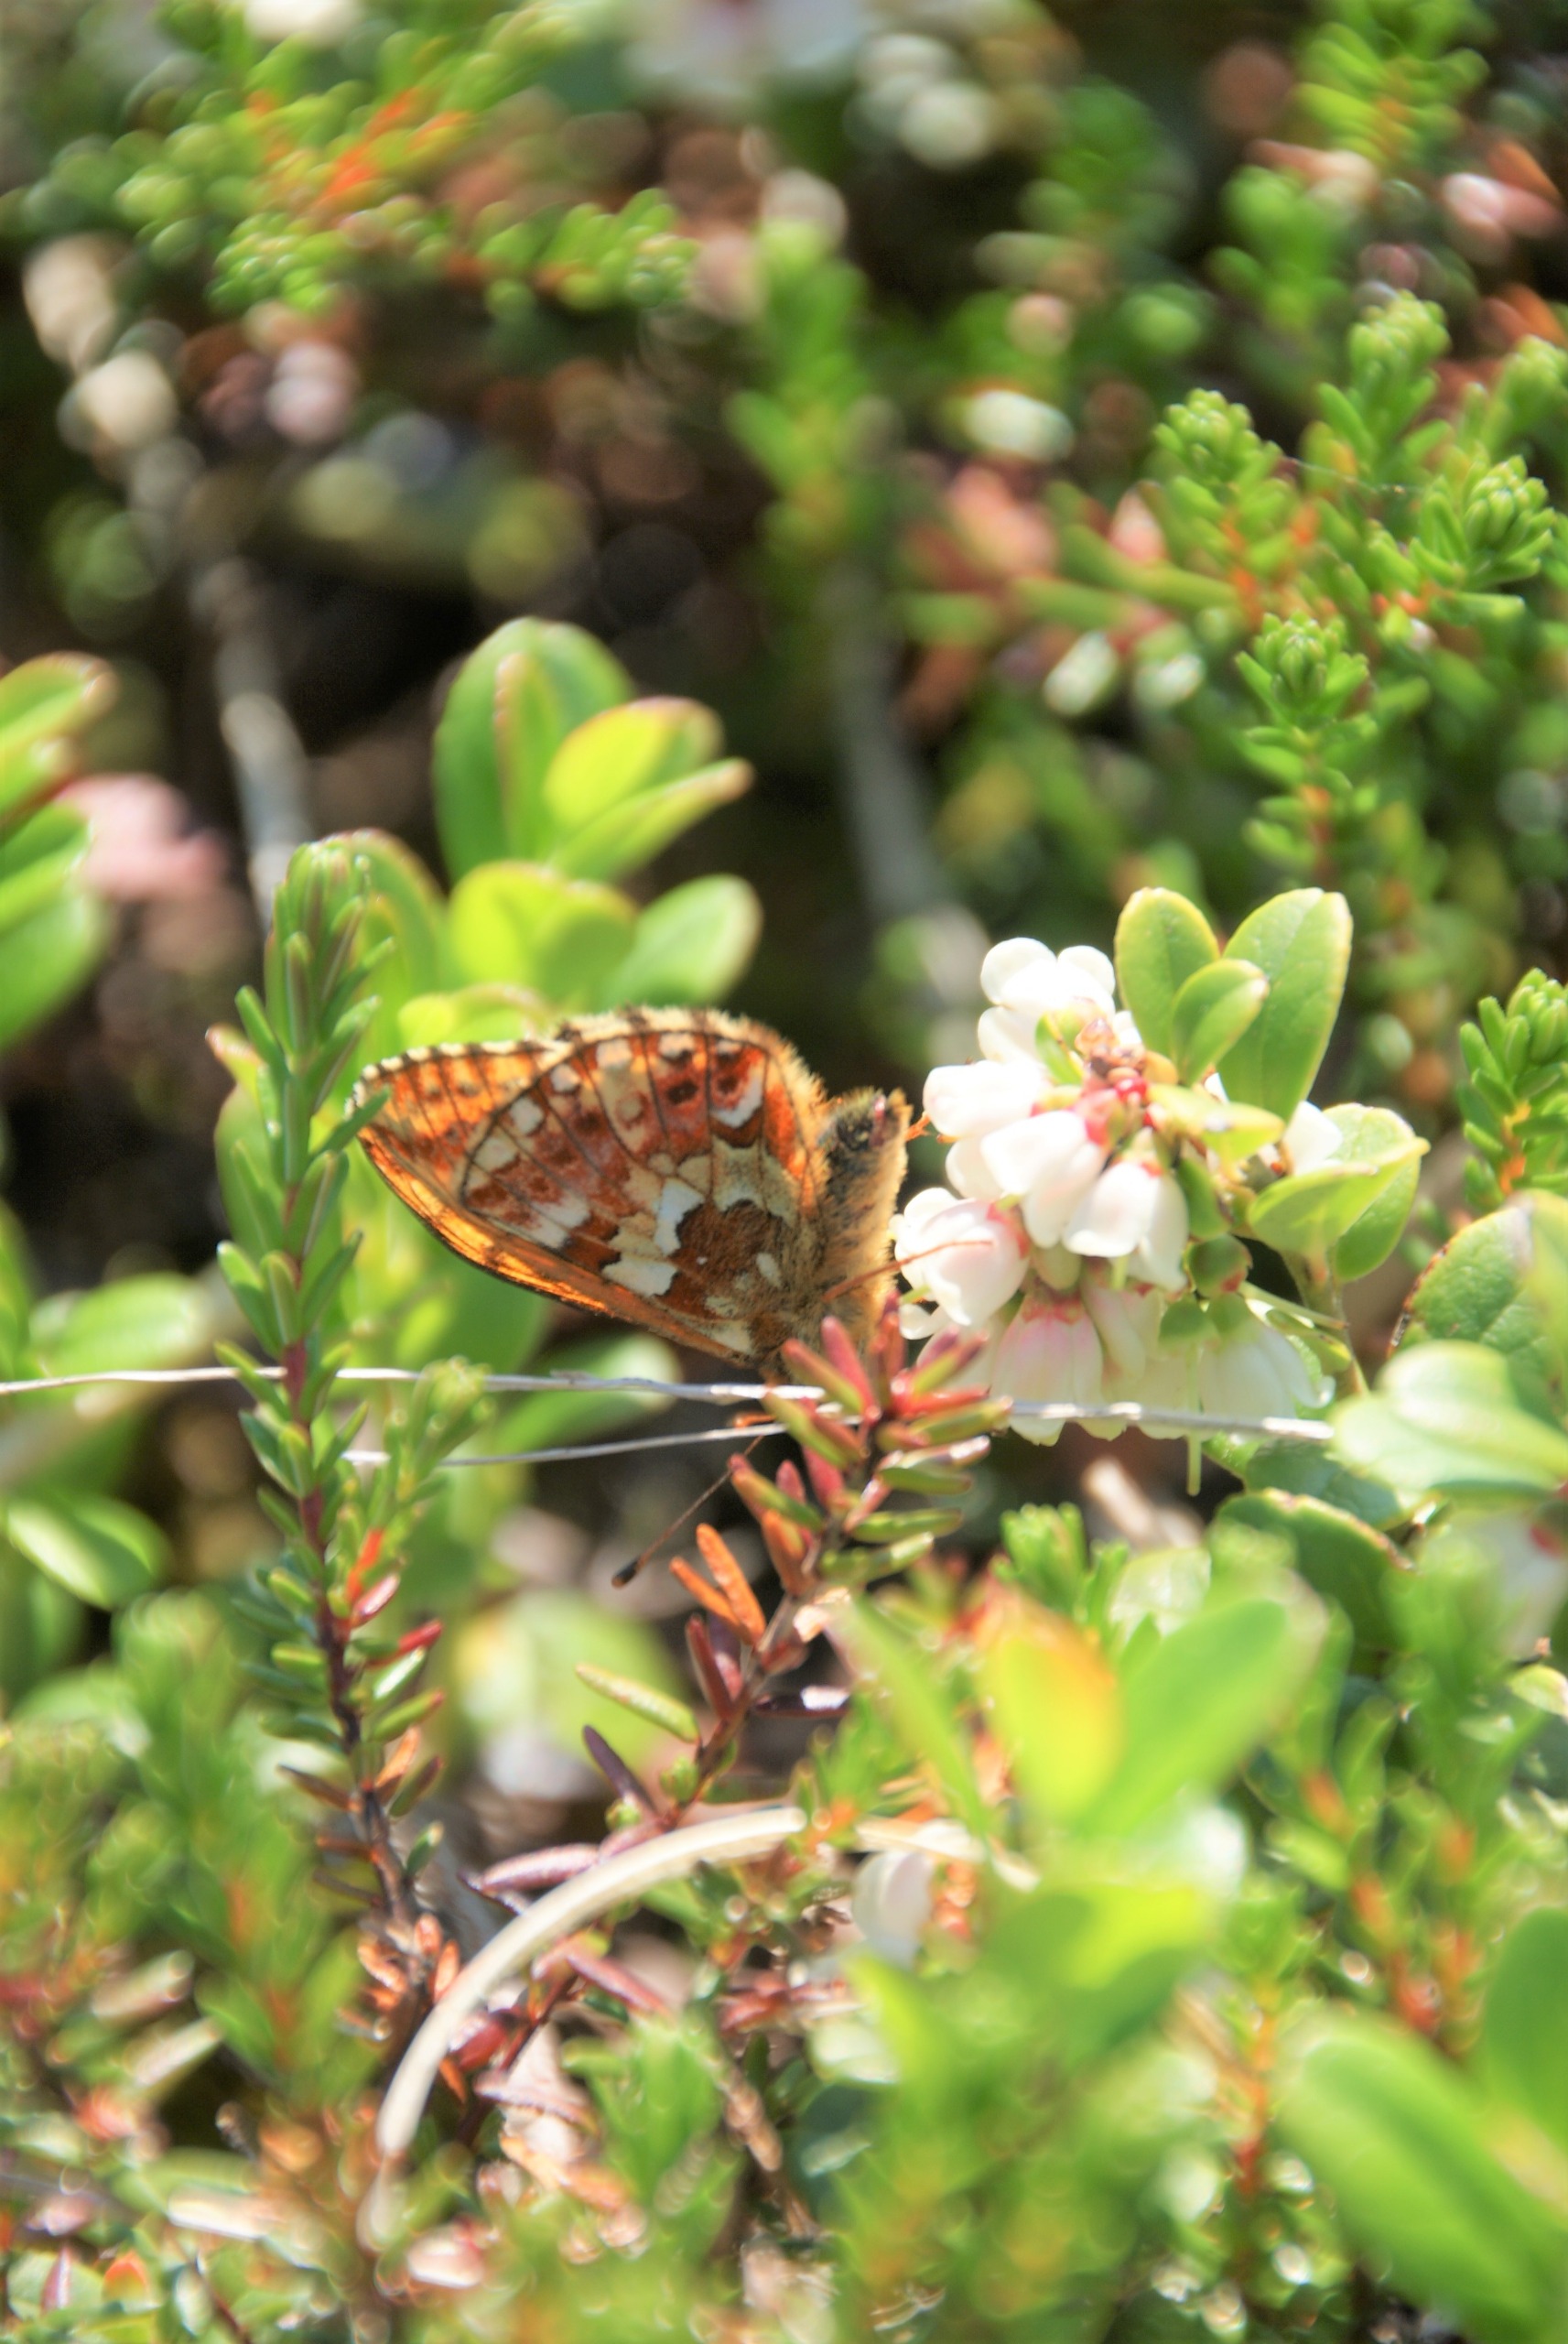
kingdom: Animalia
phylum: Arthropoda
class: Insecta
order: Lepidoptera
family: Nymphalidae
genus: Boloria
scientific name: Boloria aquilonaris
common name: Moseperlemorsommerfugl
